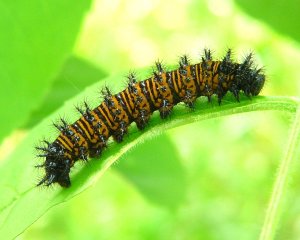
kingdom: Animalia
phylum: Arthropoda
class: Insecta
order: Lepidoptera
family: Nymphalidae
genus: Euphydryas
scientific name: Euphydryas phaeton
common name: Baltimore Checkerspot
